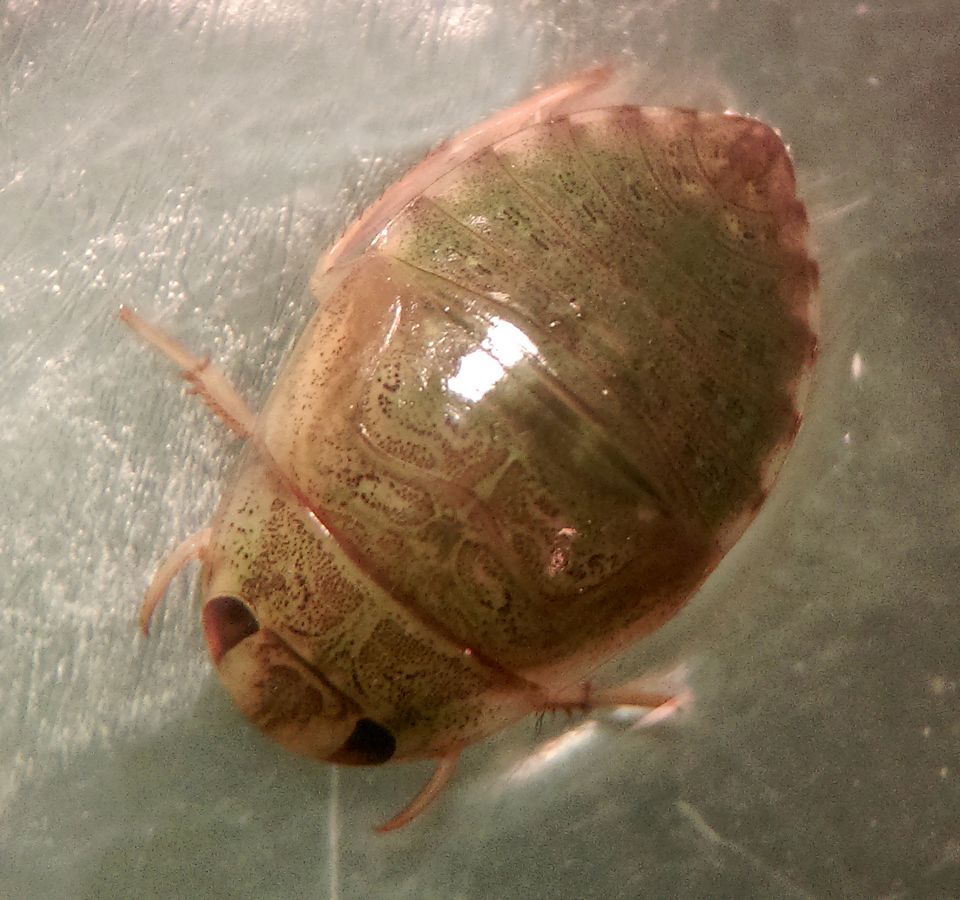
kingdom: Animalia
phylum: Arthropoda
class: Insecta
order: Hemiptera
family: Naucoridae
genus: Ilyocoris
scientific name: Ilyocoris cimicoides
